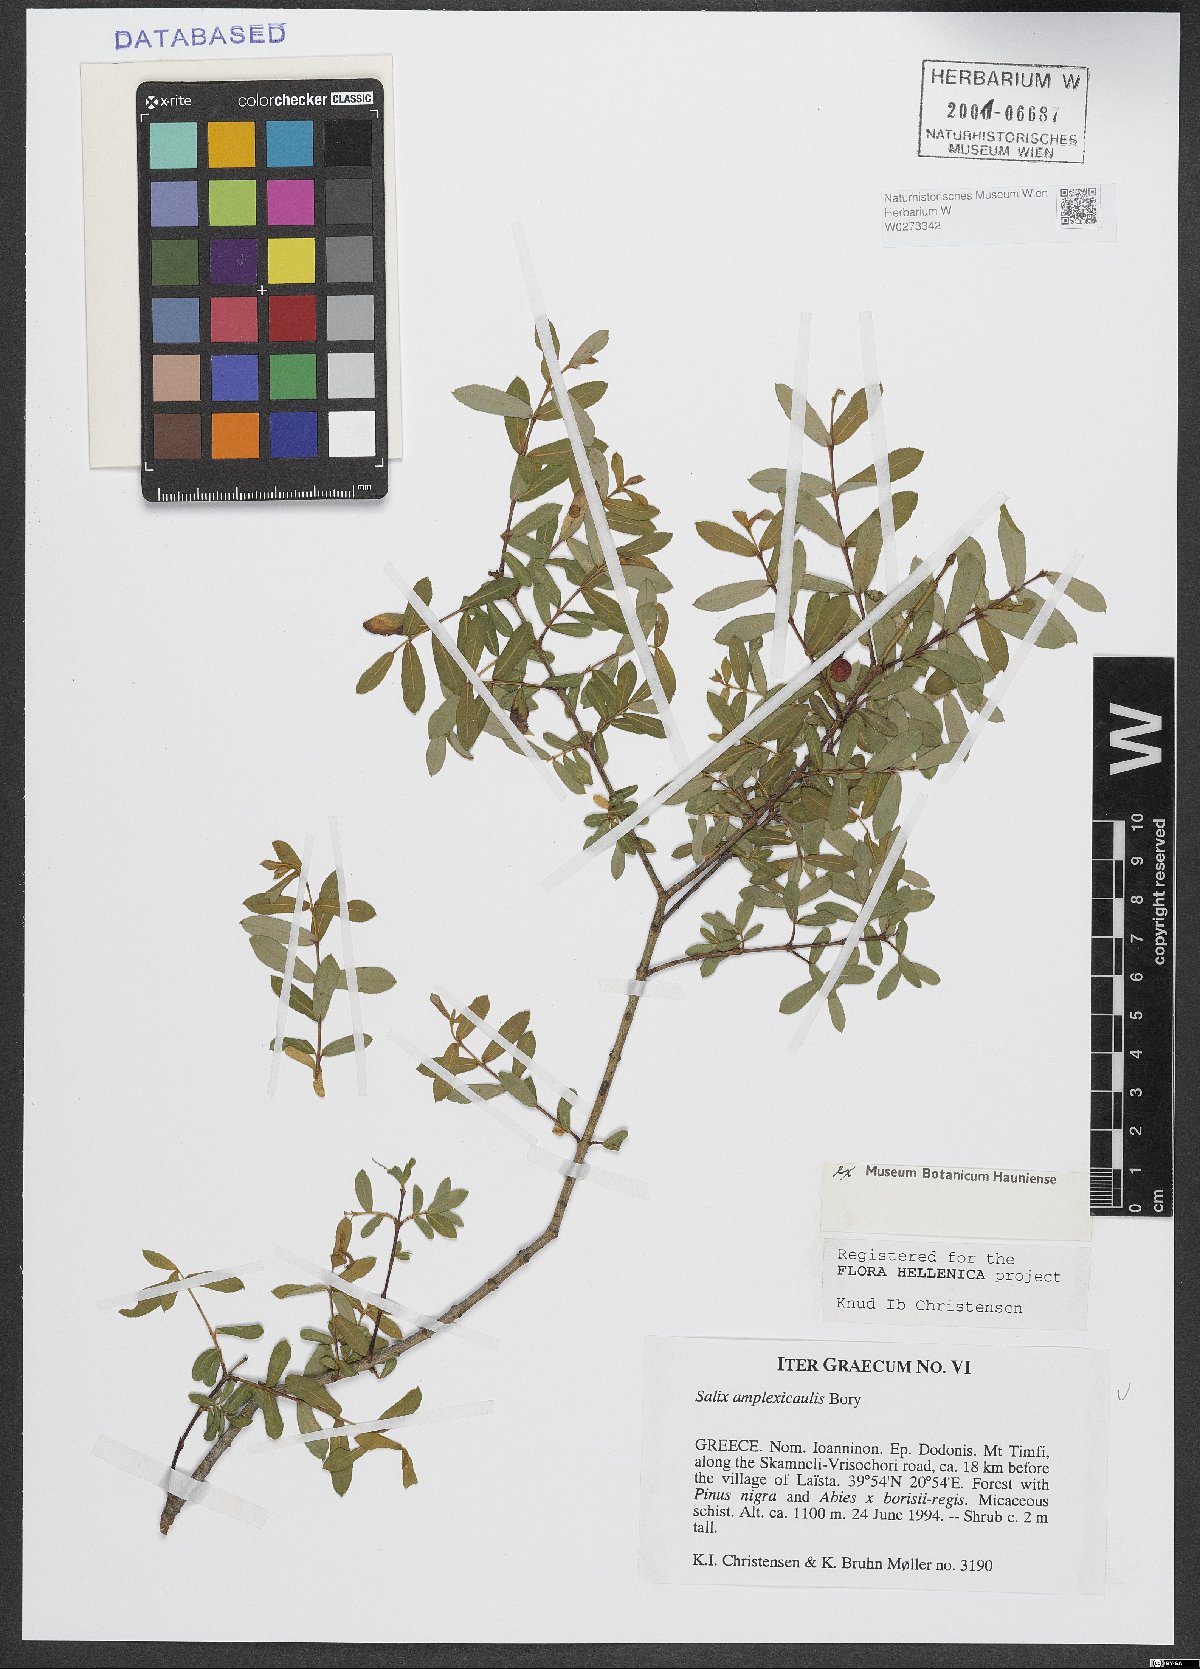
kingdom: Plantae
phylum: Tracheophyta
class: Magnoliopsida
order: Malpighiales
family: Salicaceae
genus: Salix
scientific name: Salix amplexicaulis
